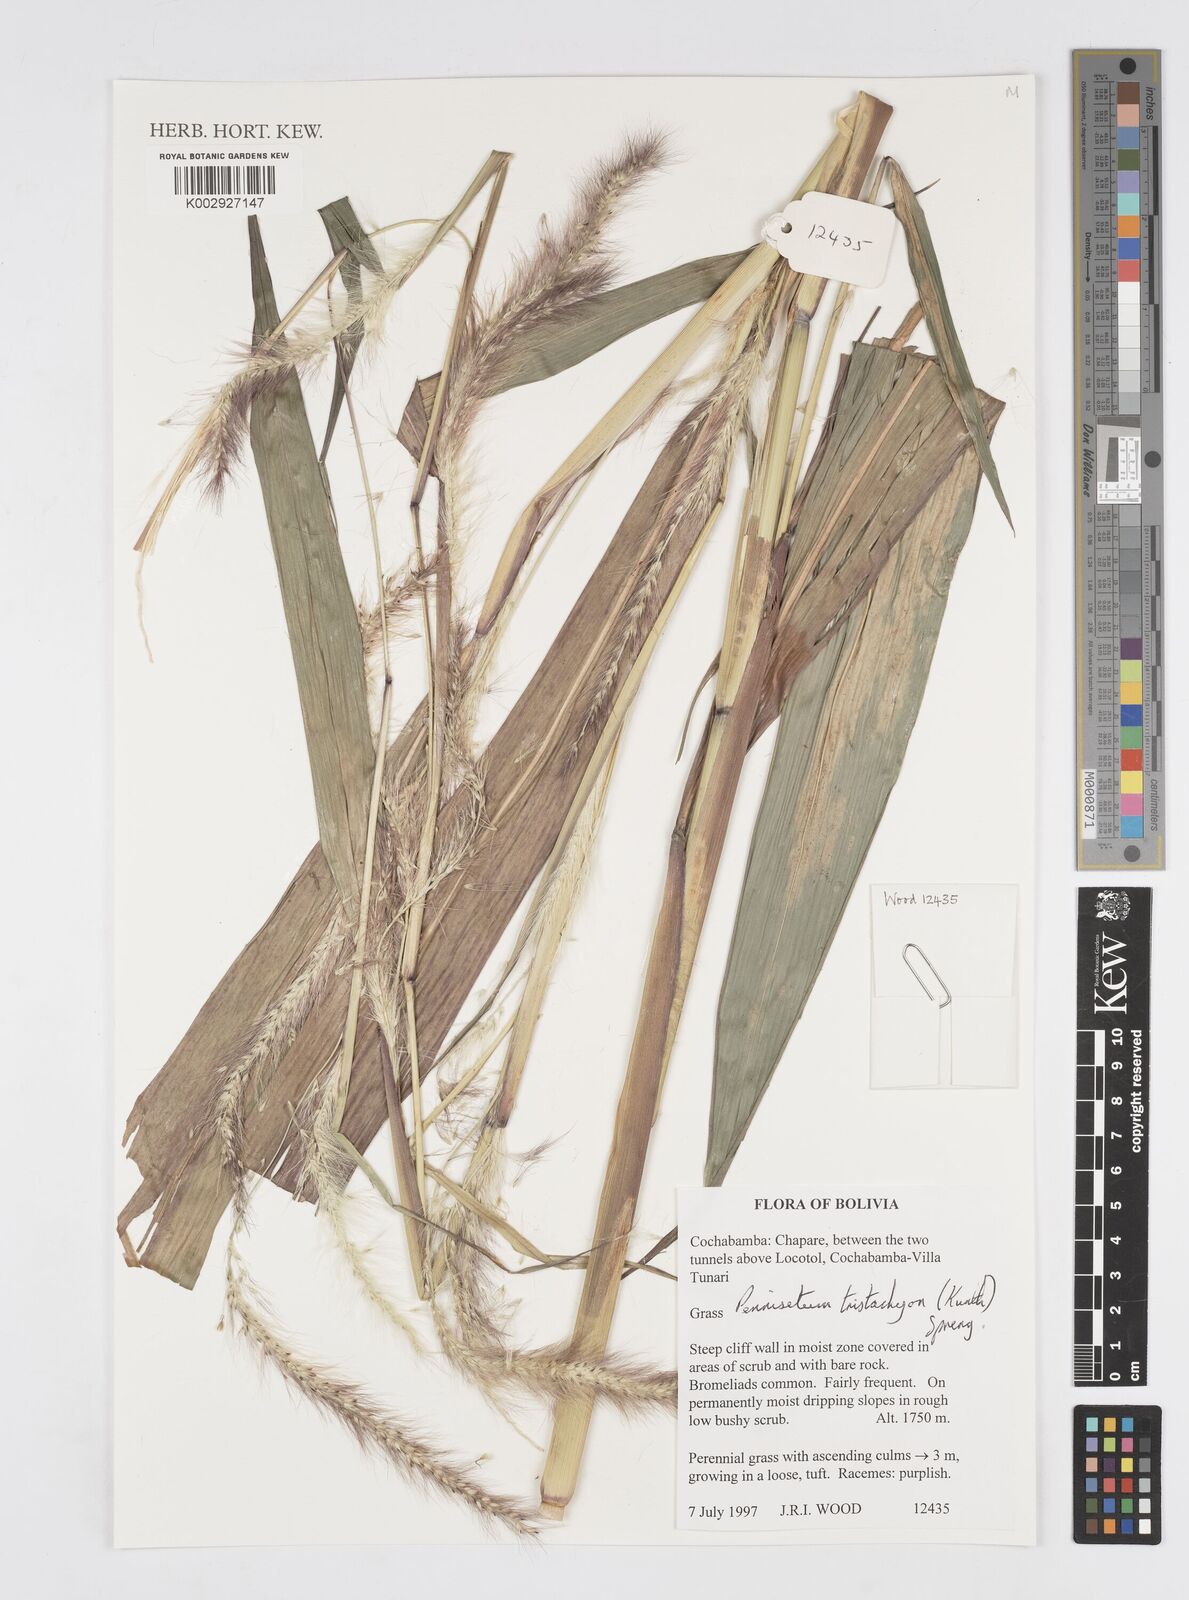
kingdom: Plantae
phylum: Tracheophyta
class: Liliopsida
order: Poales
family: Poaceae
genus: Cenchrus
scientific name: Cenchrus tristachyus
